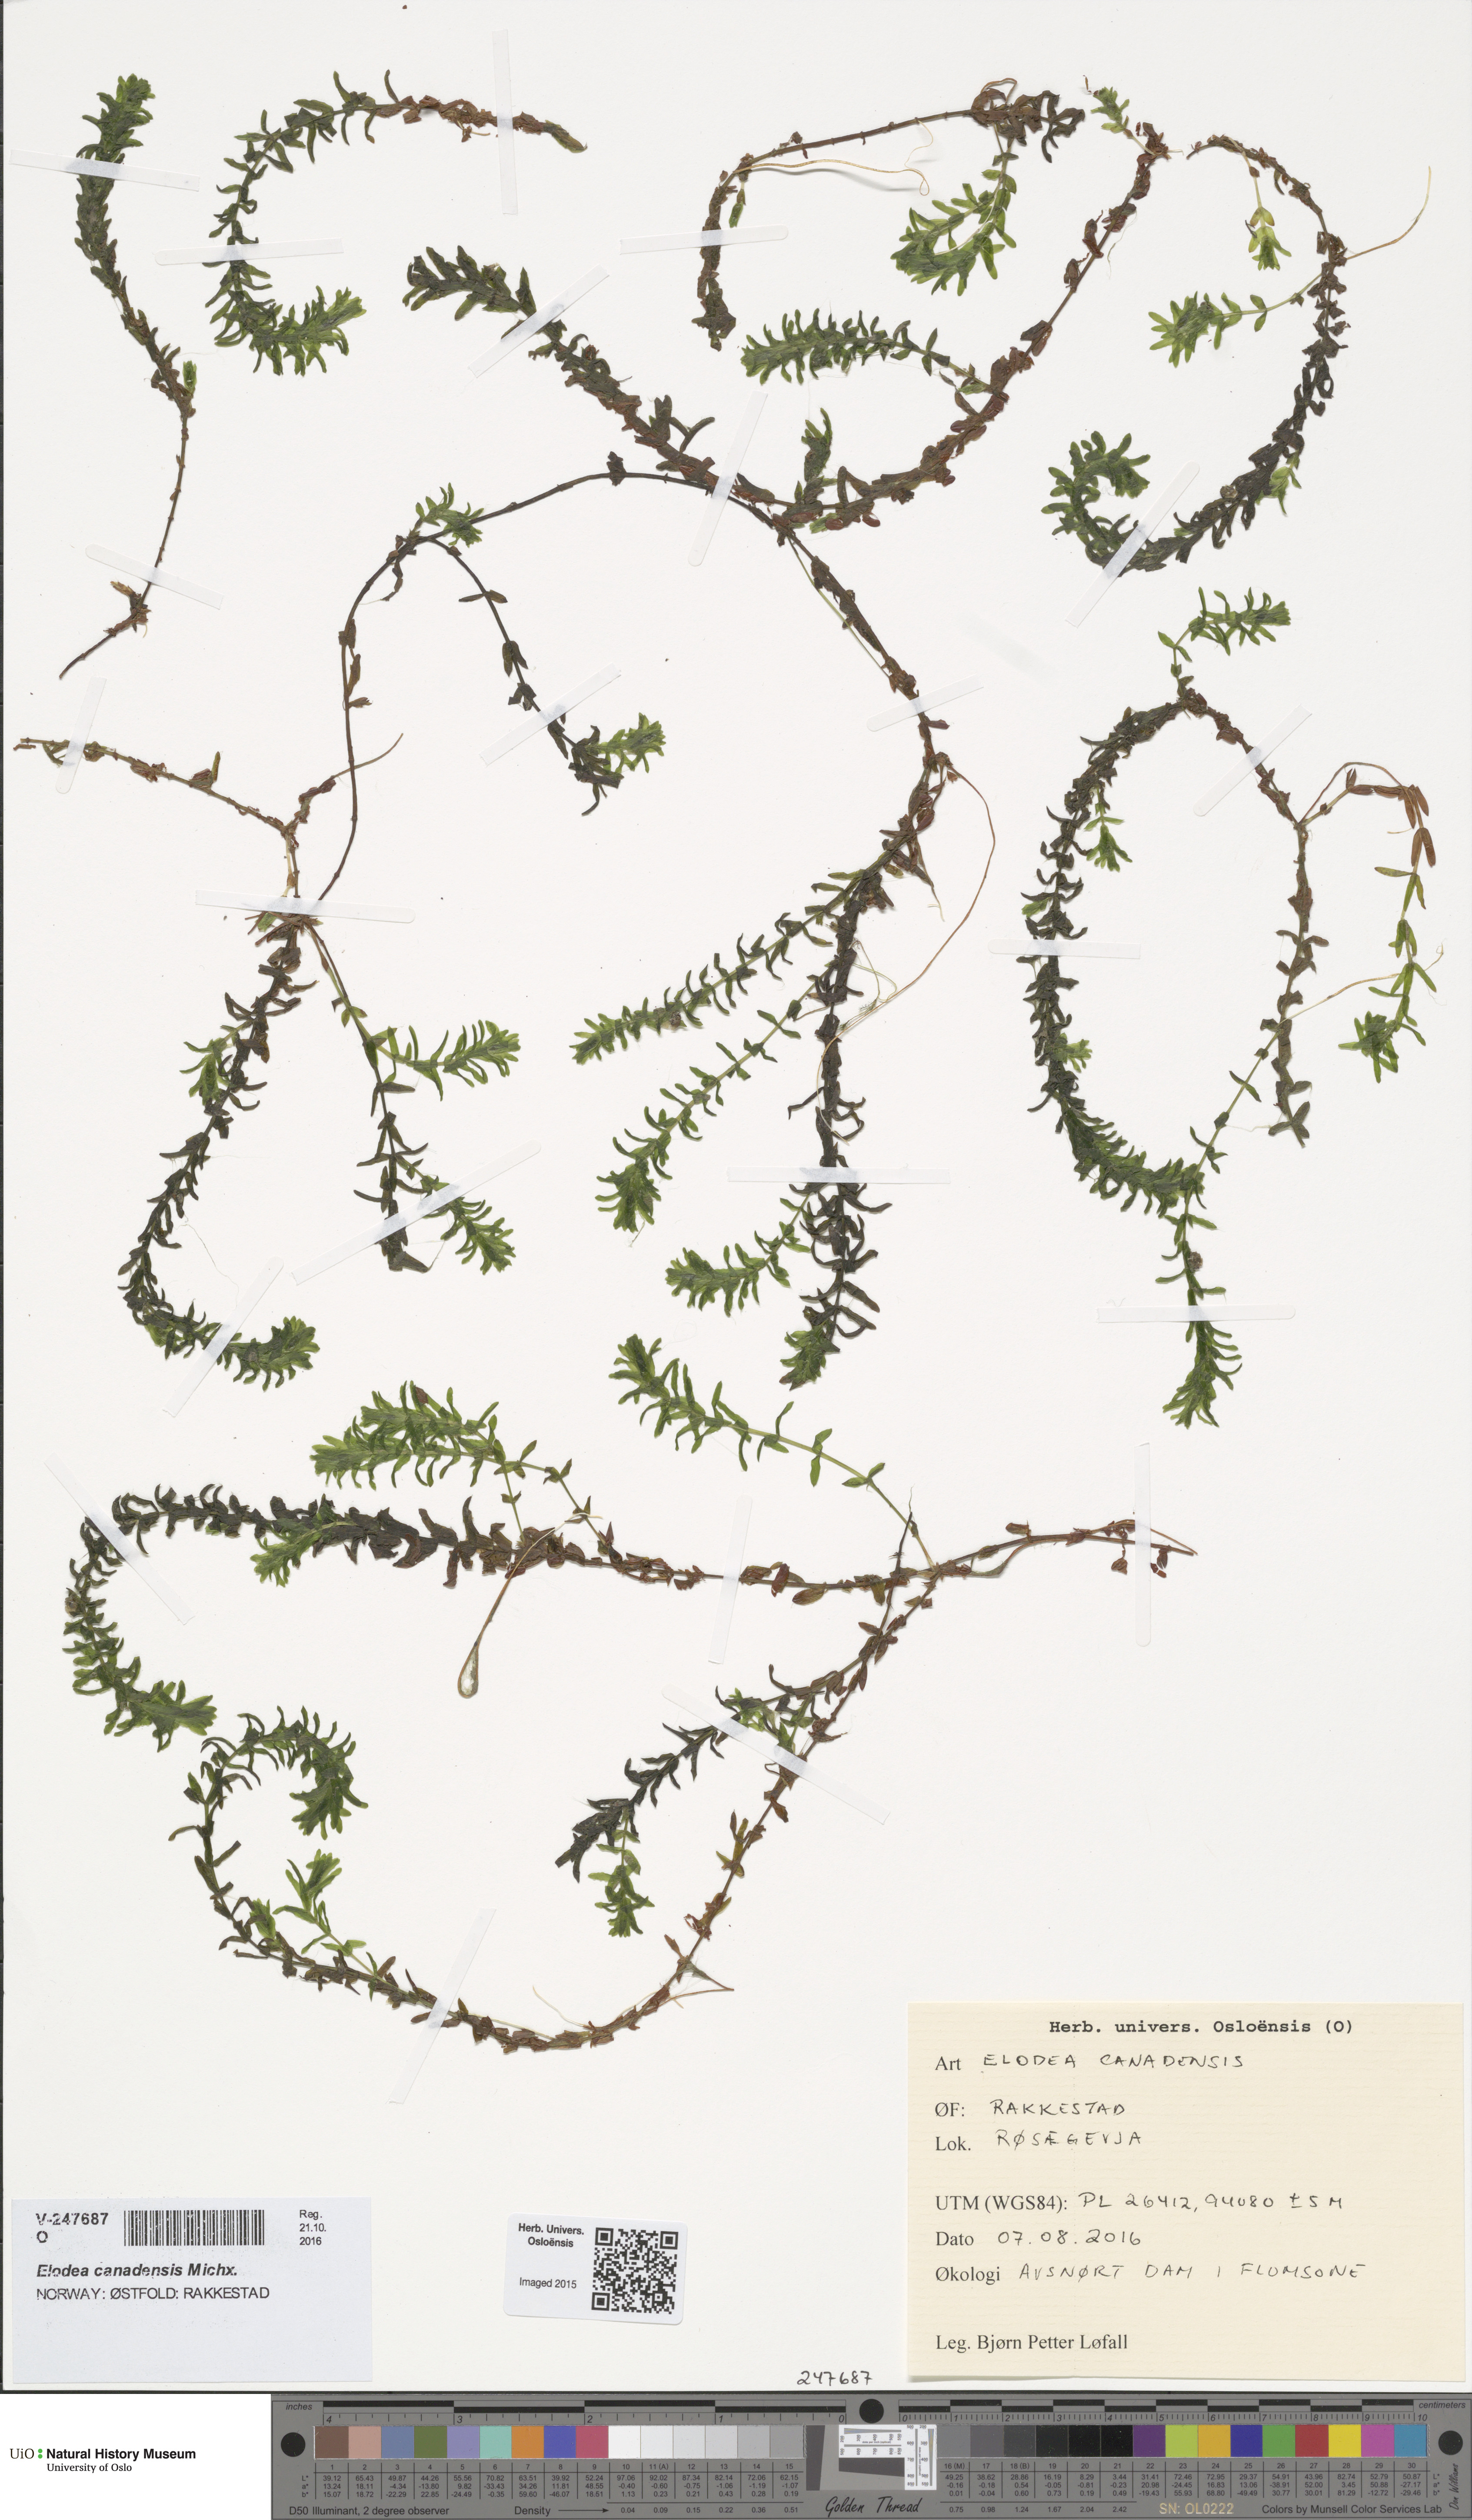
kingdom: Plantae
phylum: Tracheophyta
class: Liliopsida
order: Alismatales
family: Hydrocharitaceae
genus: Elodea
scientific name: Elodea canadensis
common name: Canadian waterweed
